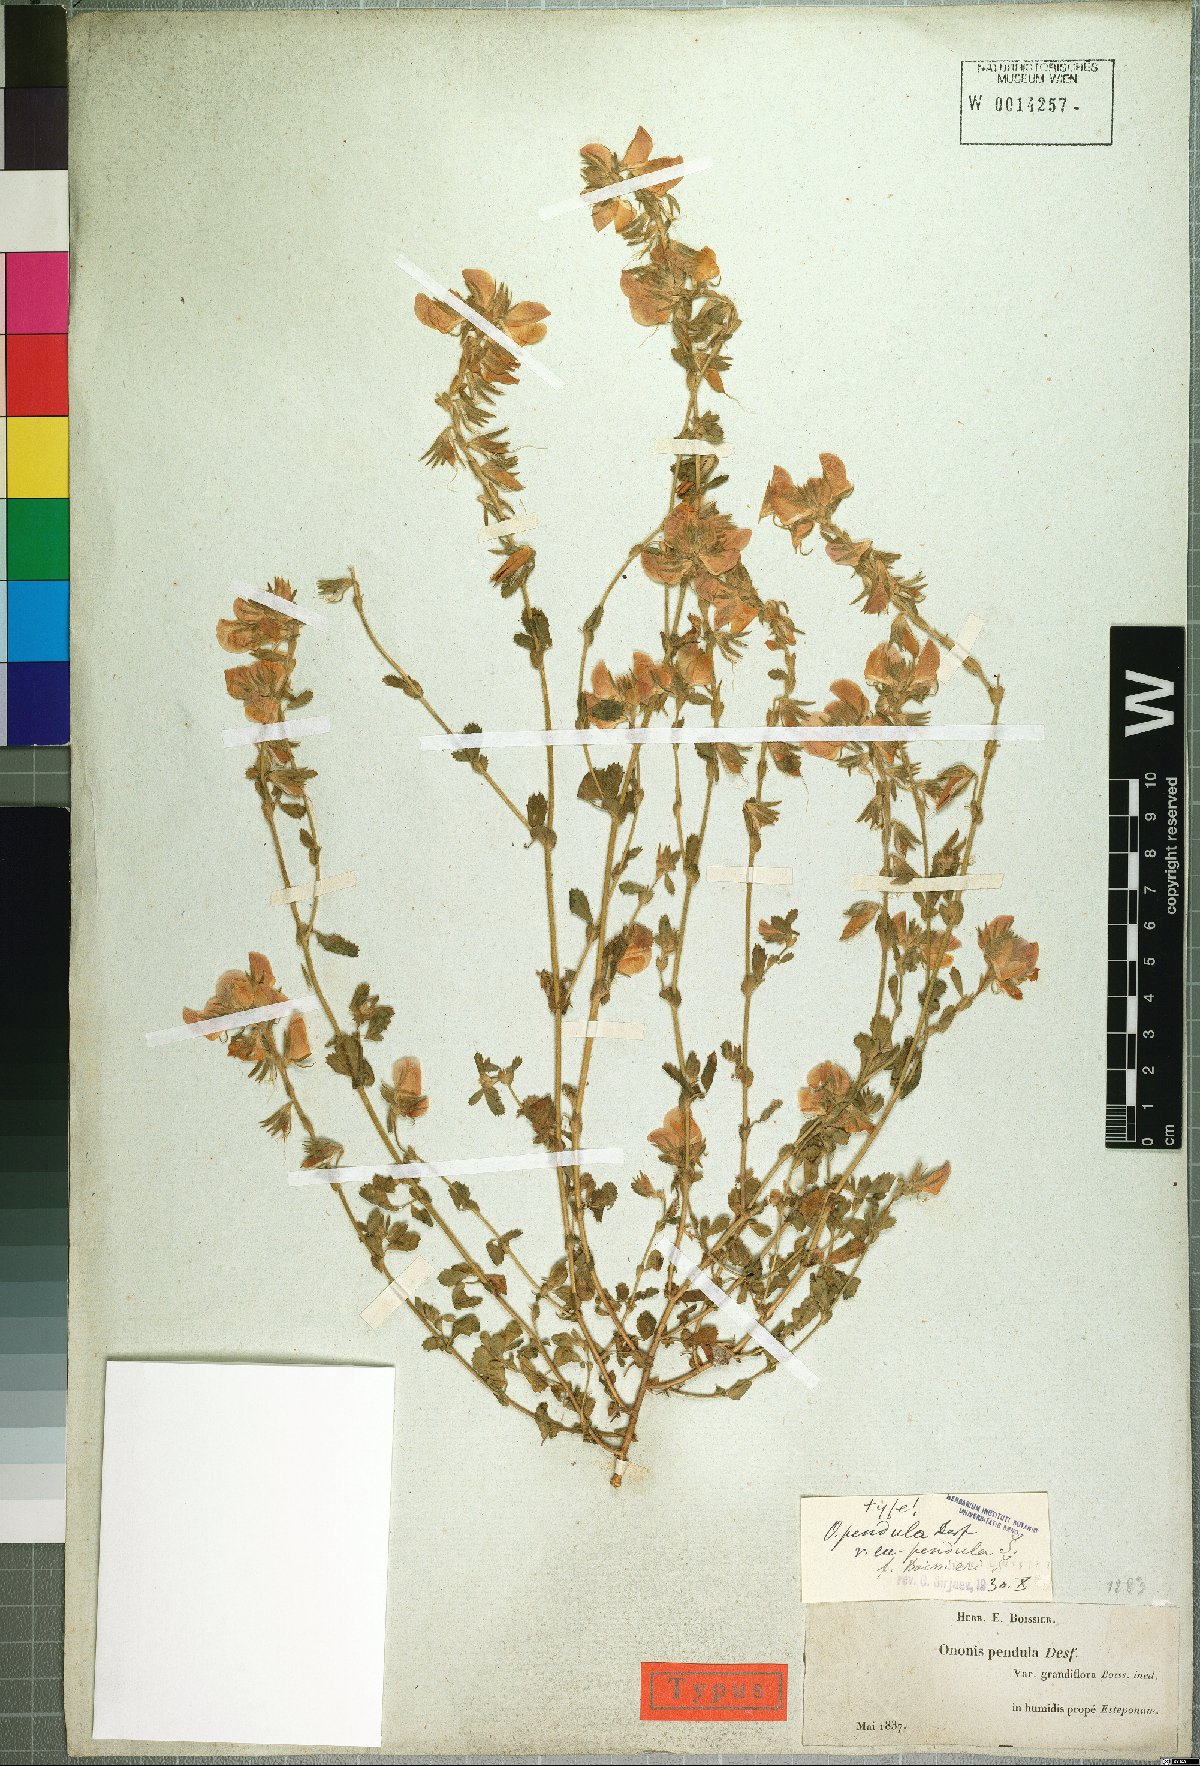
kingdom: Plantae
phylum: Tracheophyta
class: Magnoliopsida
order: Fabales
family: Fabaceae
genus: Ononis
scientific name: Ononis pendula
